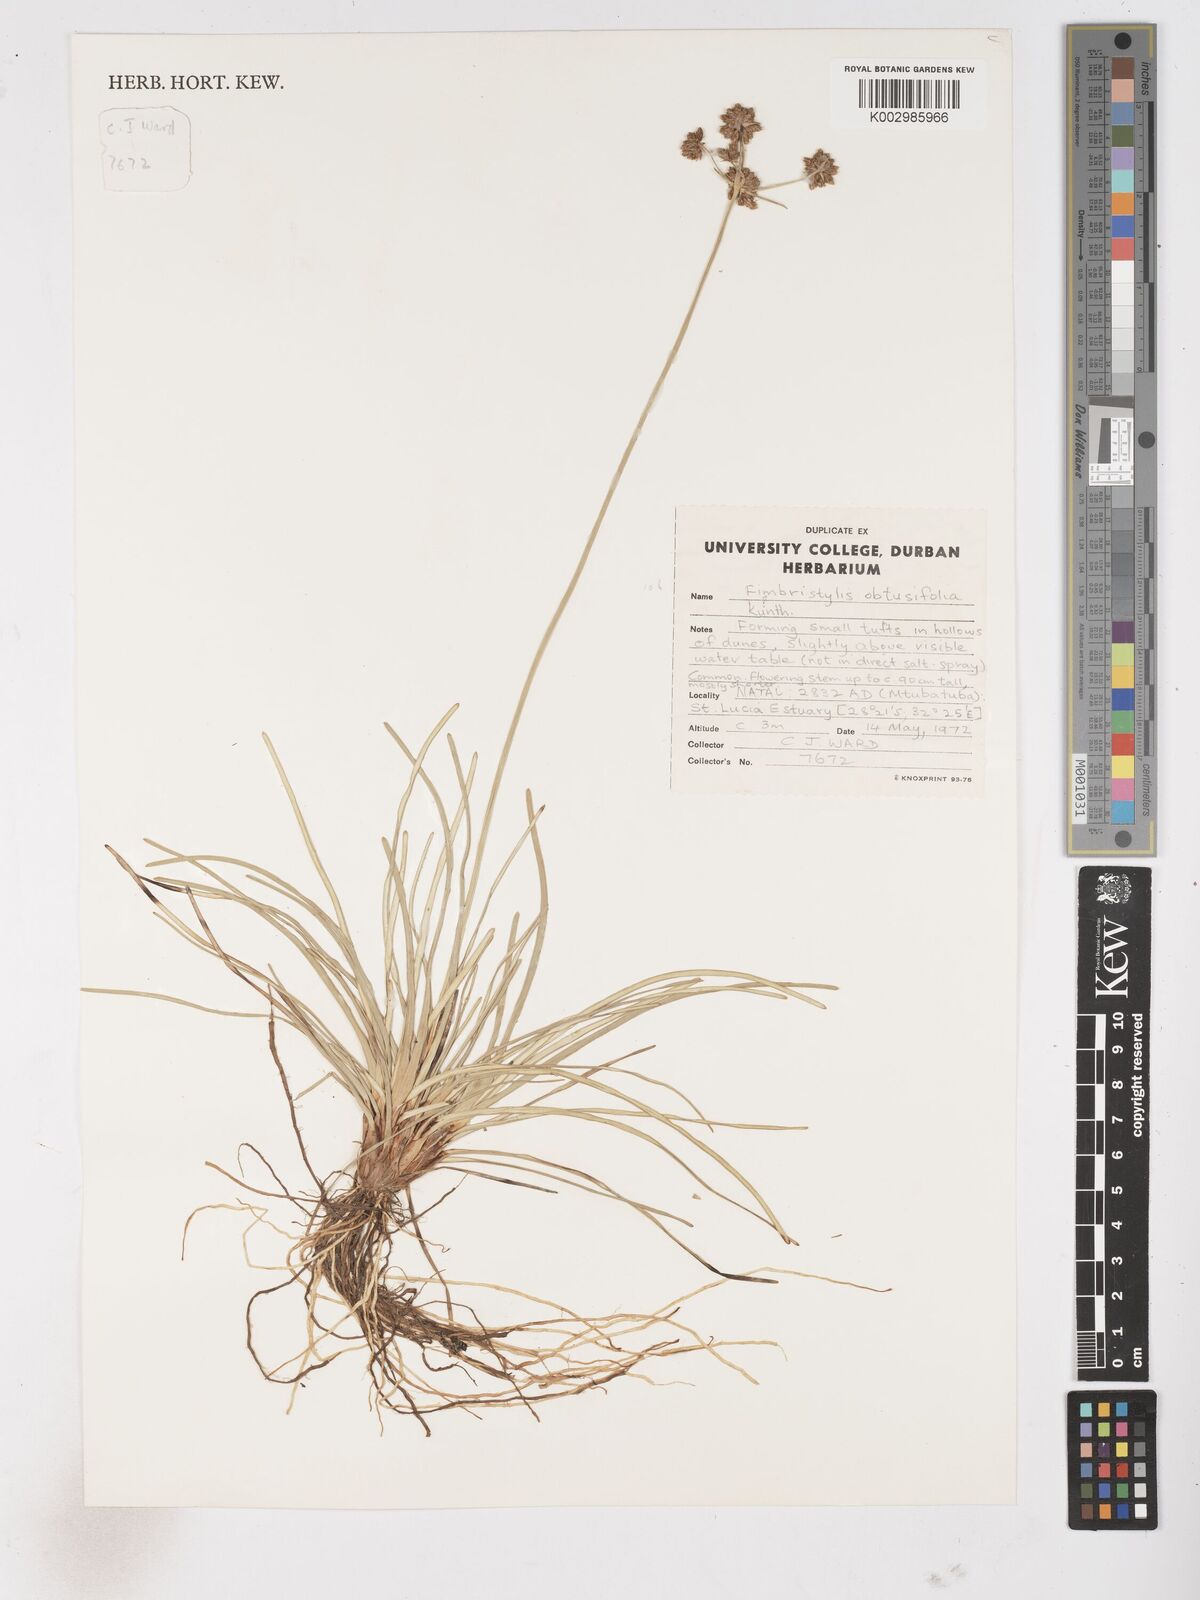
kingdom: Plantae
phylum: Tracheophyta
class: Liliopsida
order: Poales
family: Cyperaceae
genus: Fimbristylis
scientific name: Fimbristylis cymosa
